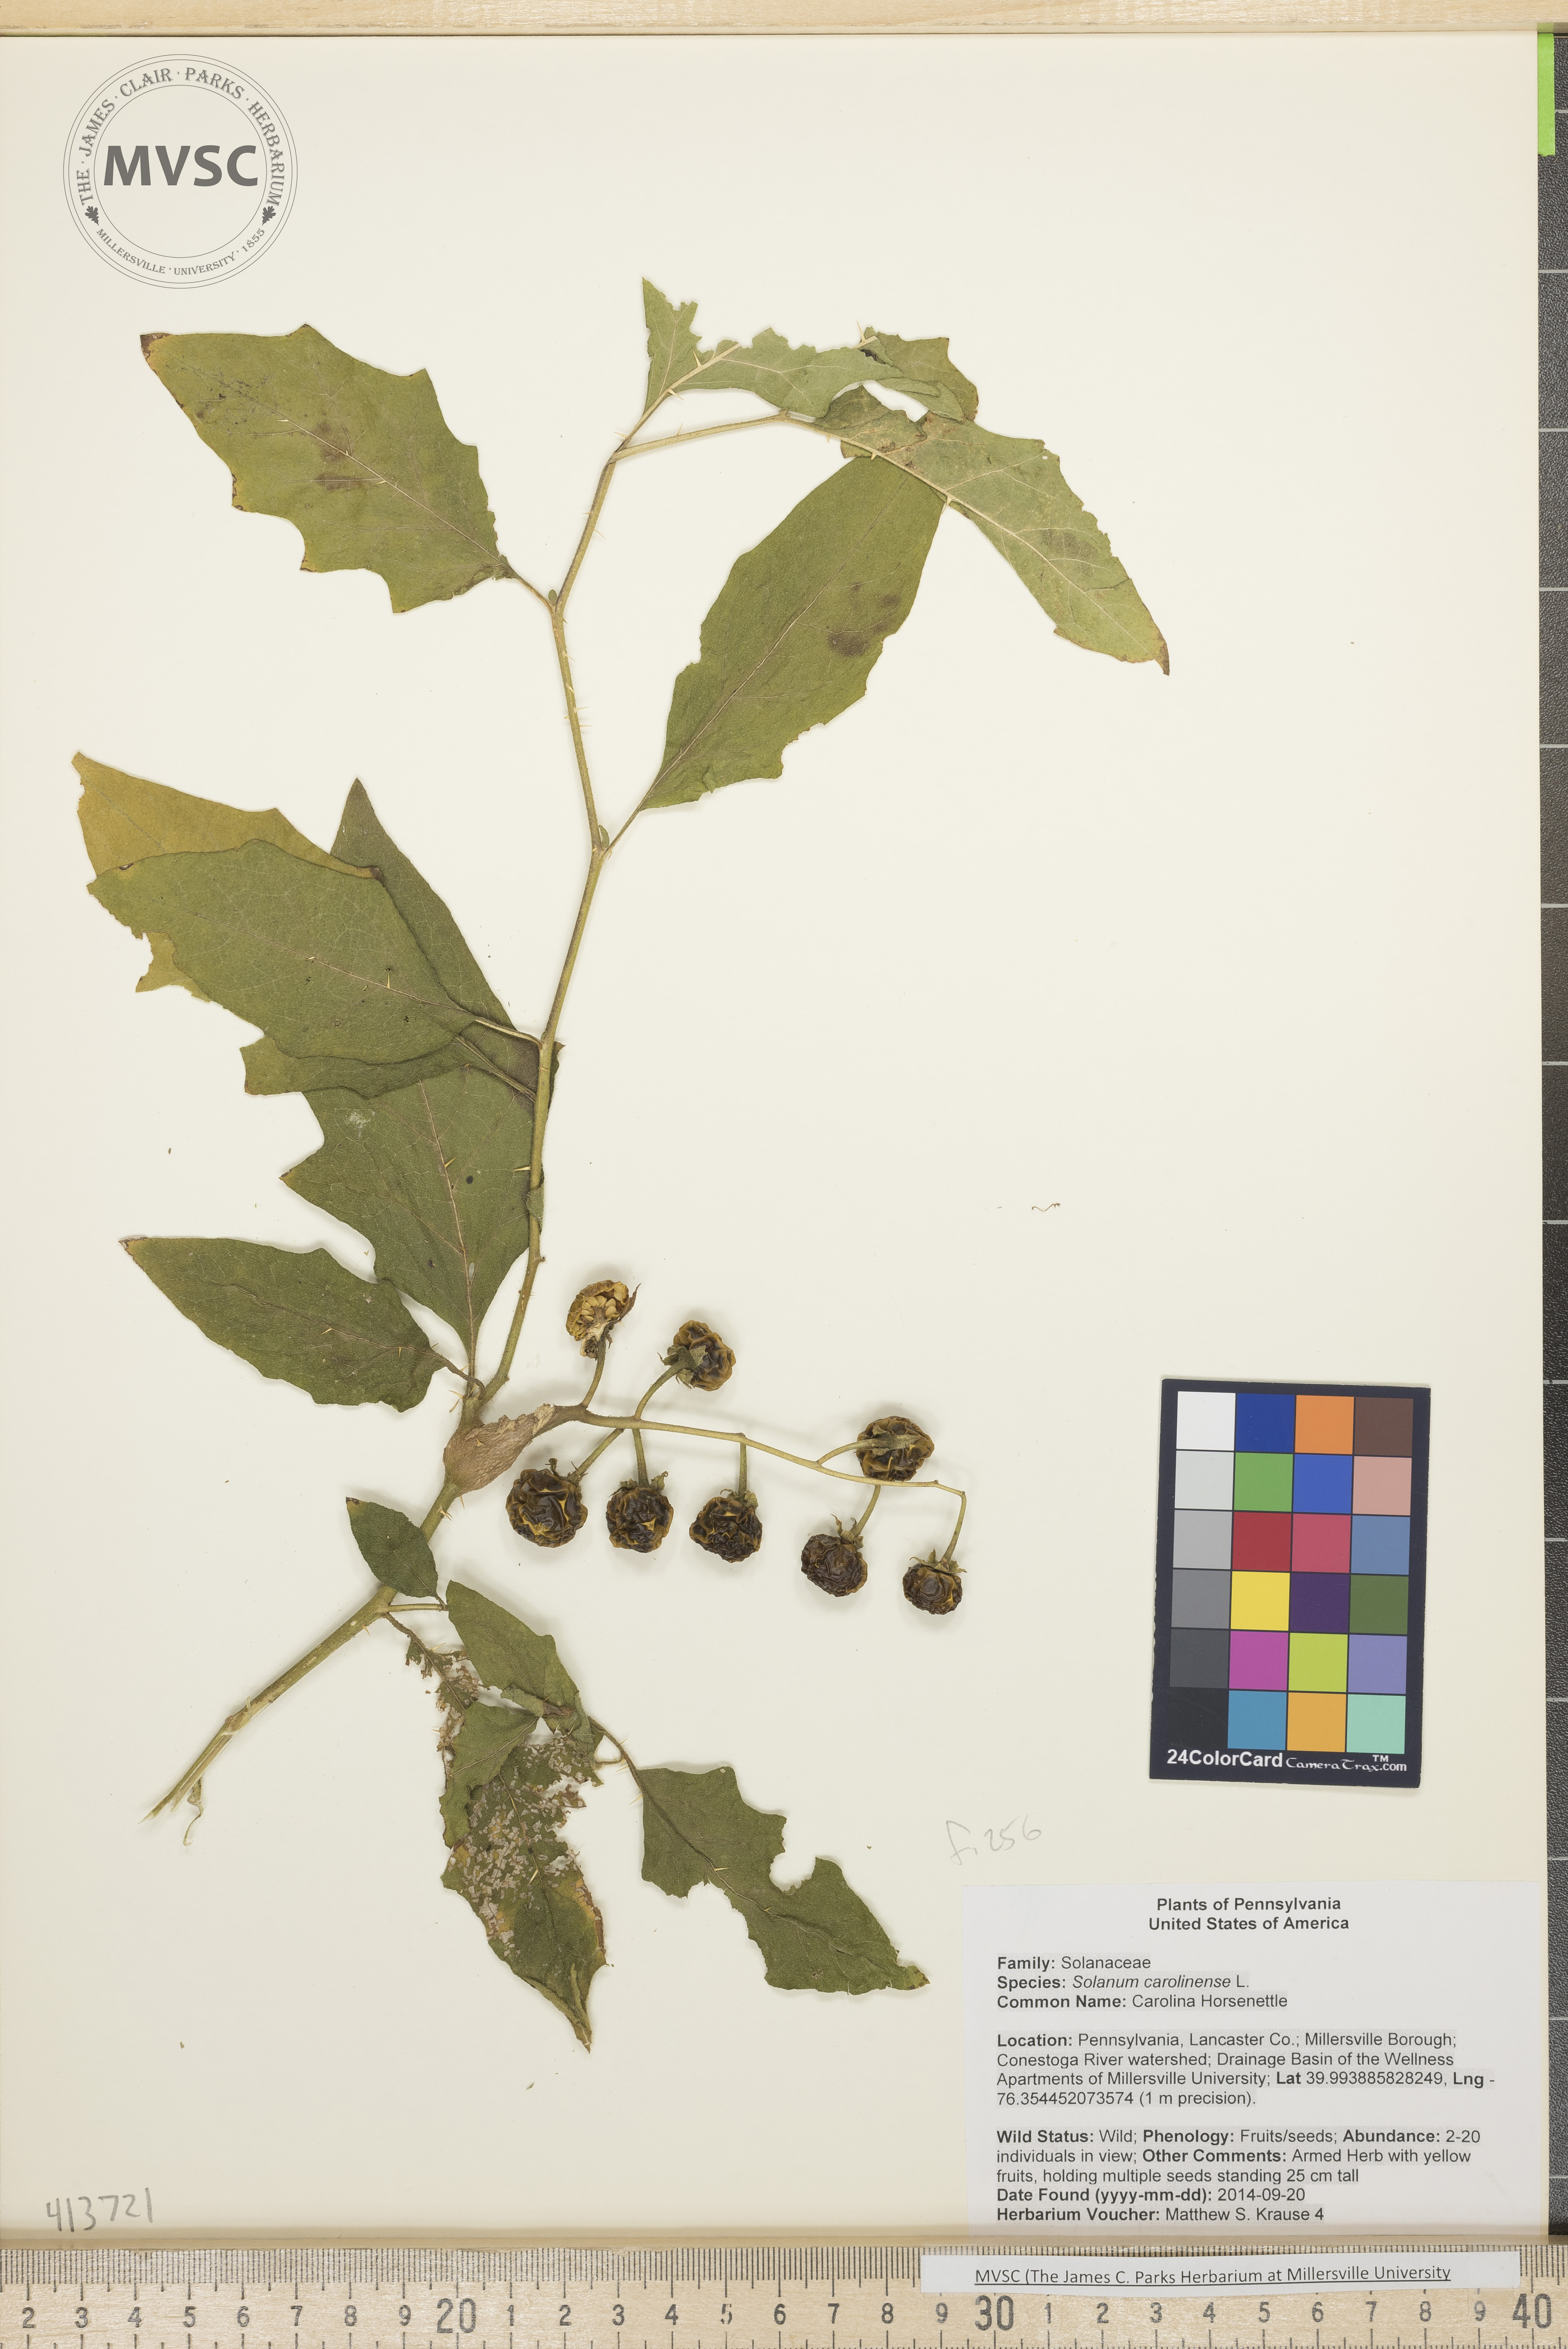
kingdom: Plantae
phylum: Tracheophyta
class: Magnoliopsida
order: Solanales
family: Solanaceae
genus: Solanum
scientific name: Solanum carolinense
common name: Carolina Horsenettle
